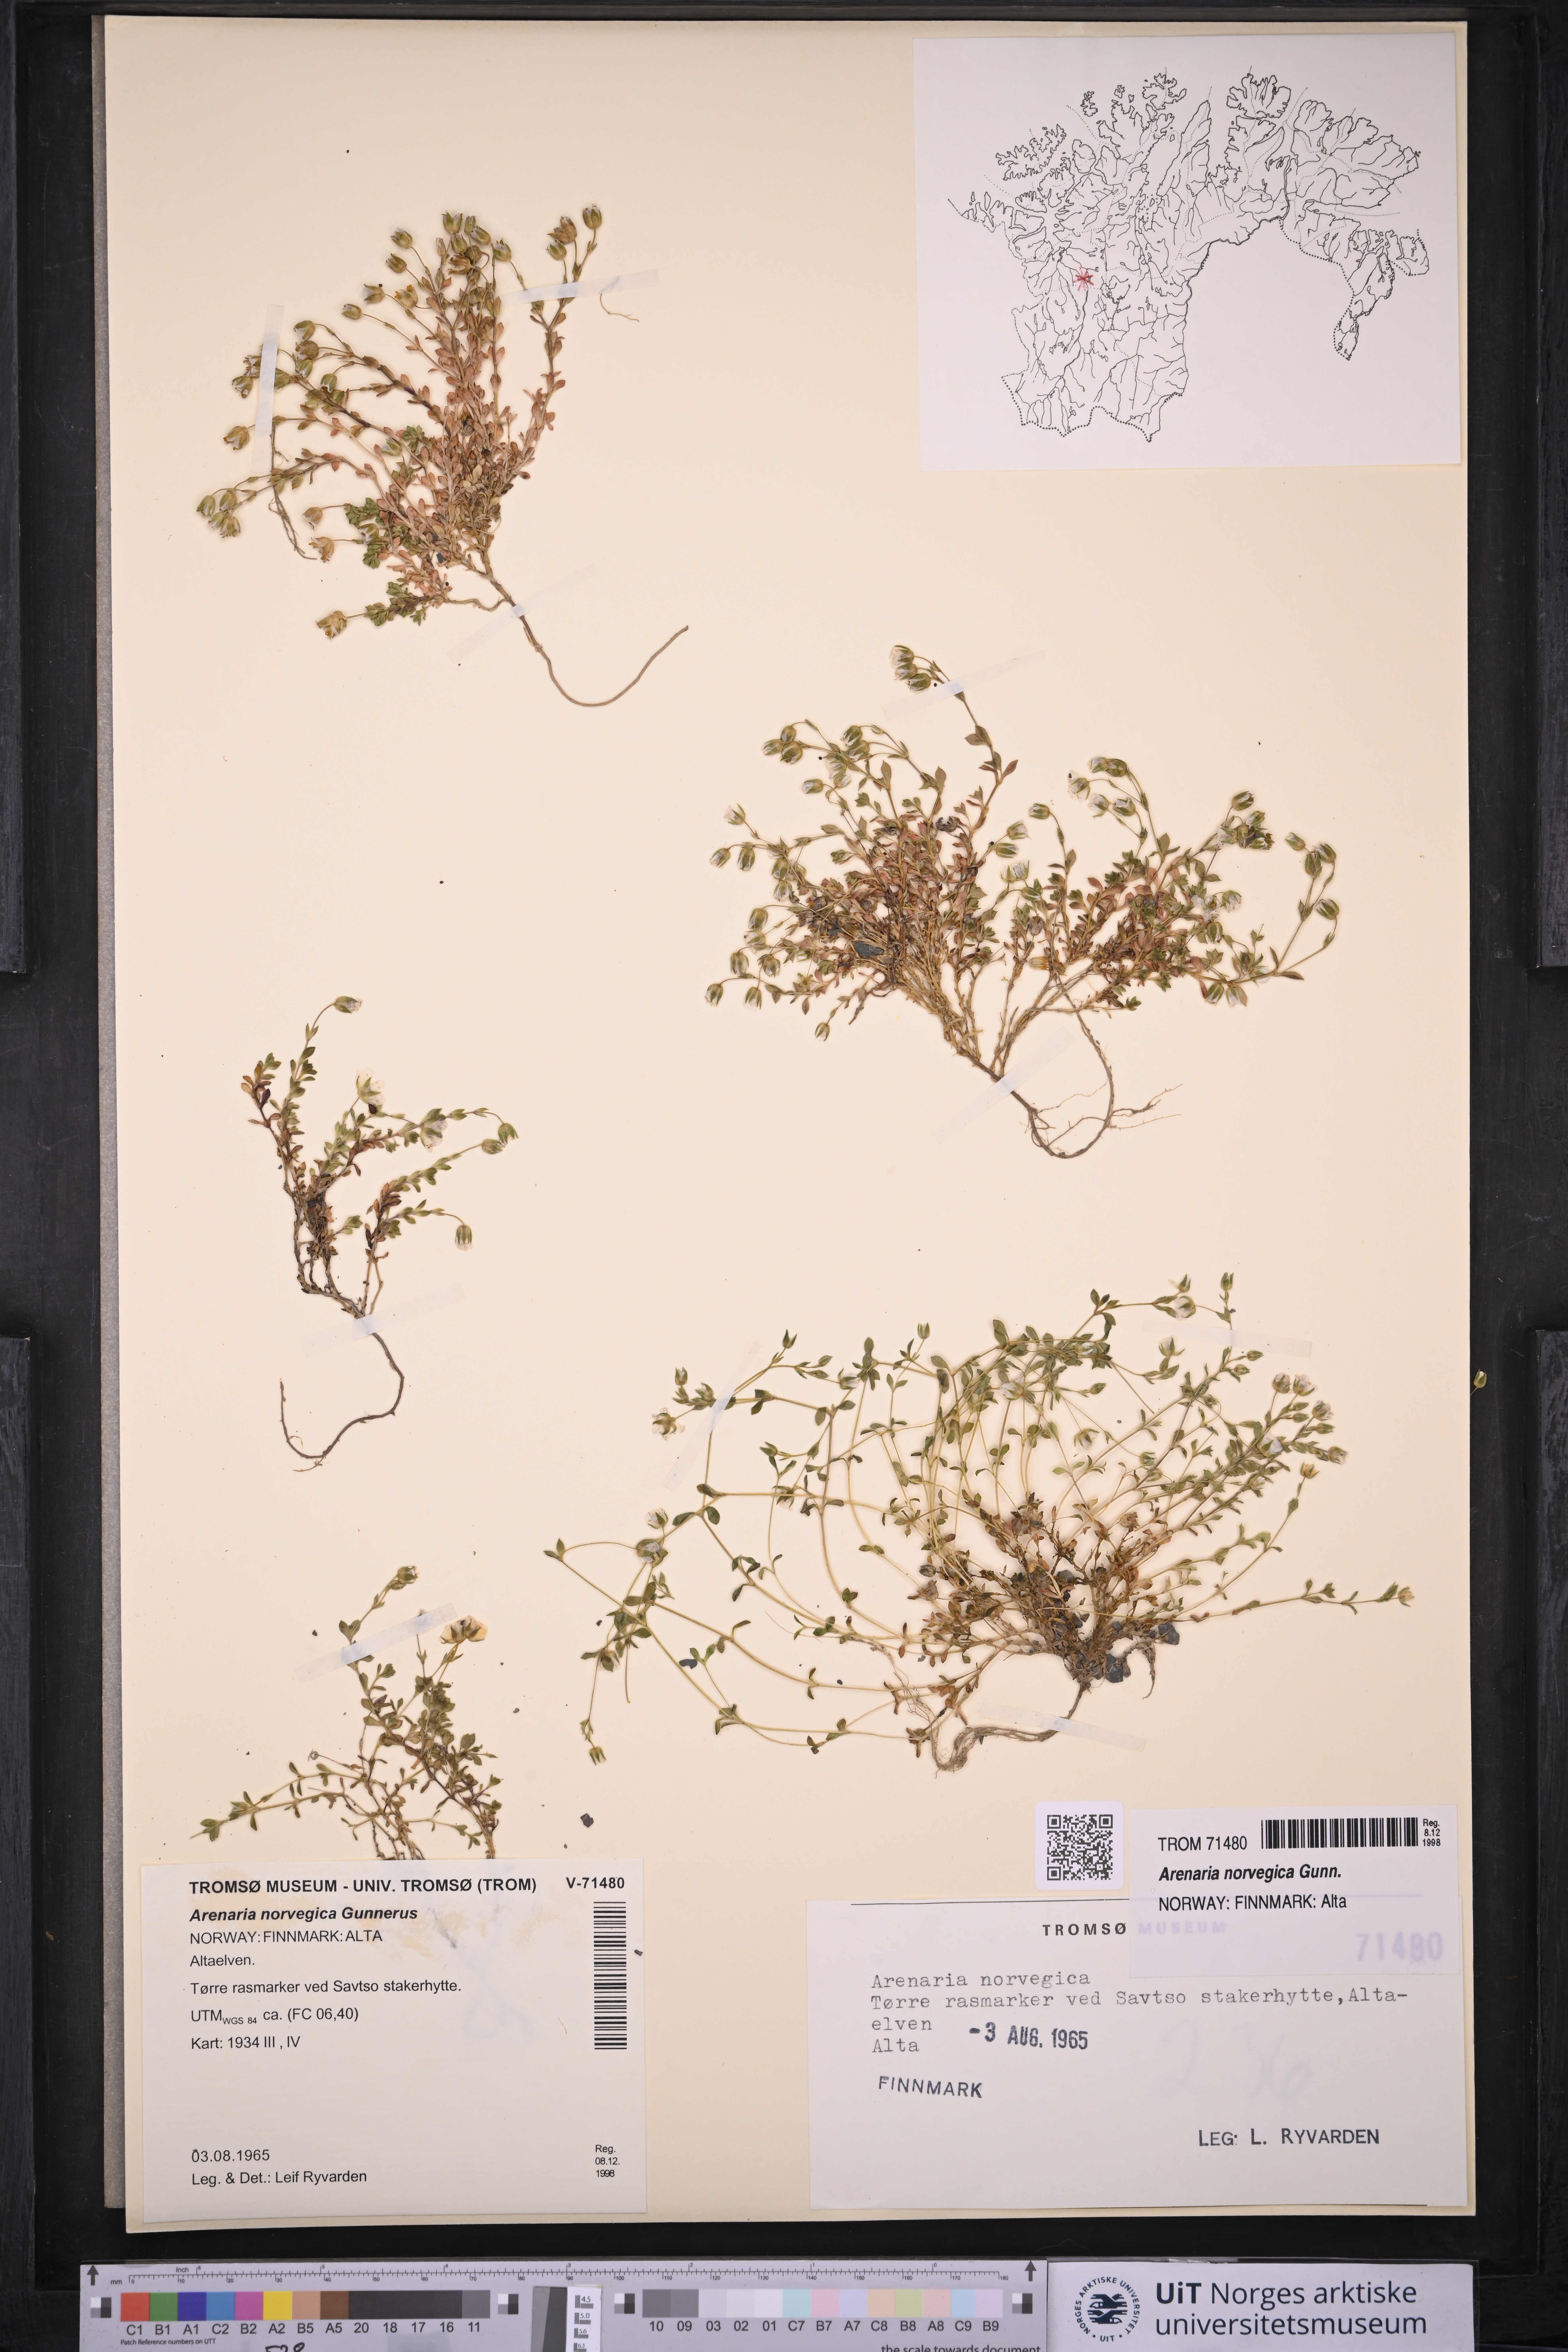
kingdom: Plantae
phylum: Tracheophyta
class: Magnoliopsida
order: Caryophyllales
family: Caryophyllaceae
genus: Arenaria
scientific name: Arenaria norvegica
